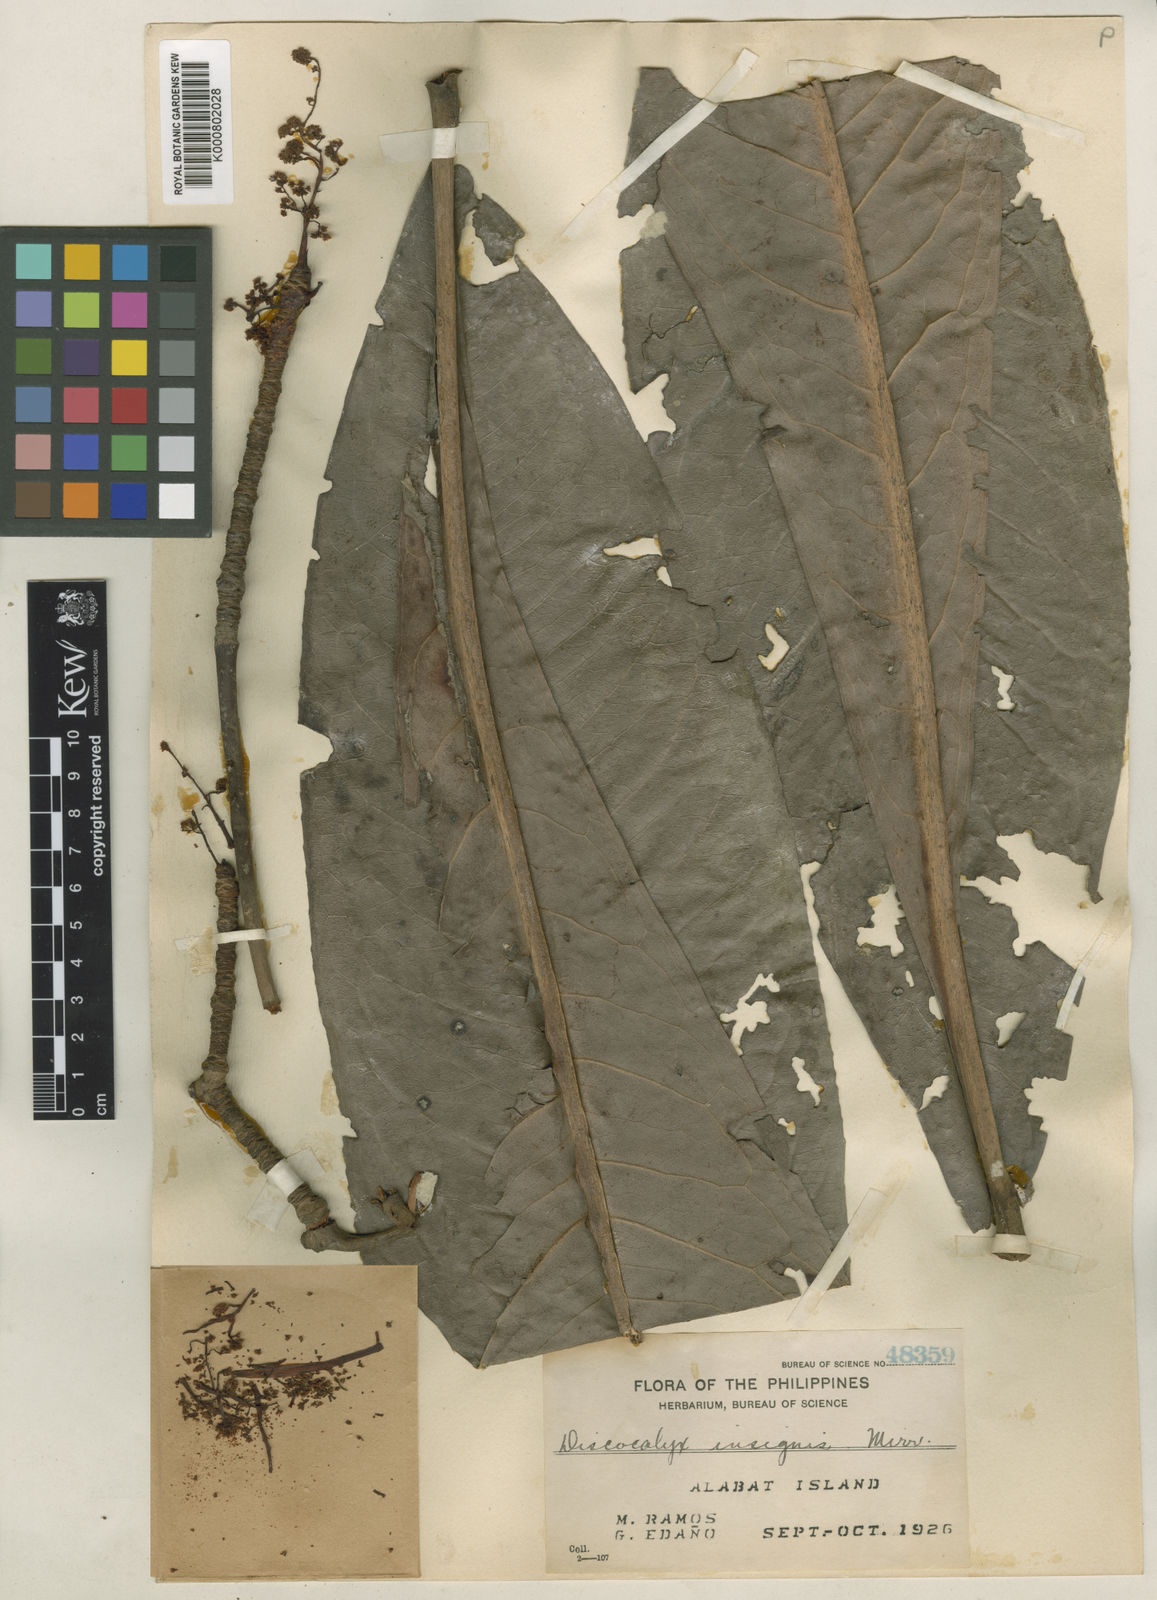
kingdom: Plantae
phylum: Tracheophyta
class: Magnoliopsida
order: Ericales
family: Primulaceae
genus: Discocalyx
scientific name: Discocalyx insignis
